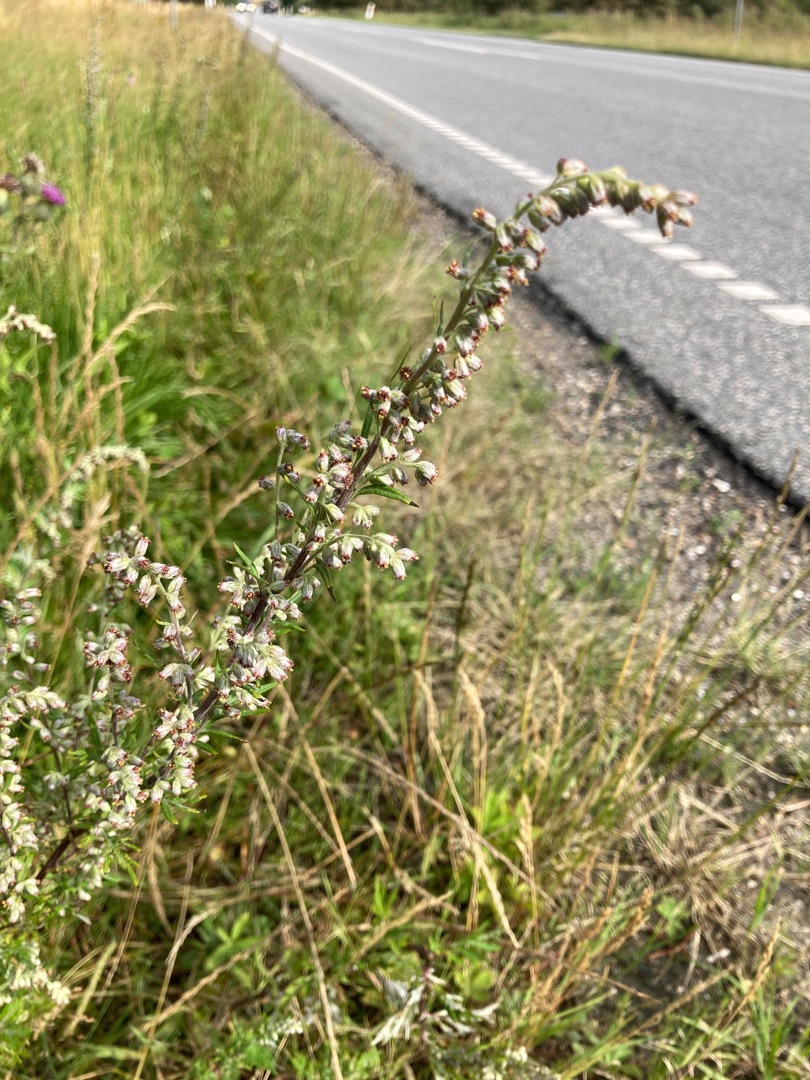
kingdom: Plantae
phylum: Tracheophyta
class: Magnoliopsida
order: Asterales
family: Asteraceae
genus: Artemisia
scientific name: Artemisia vulgaris
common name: Grå-bynke
